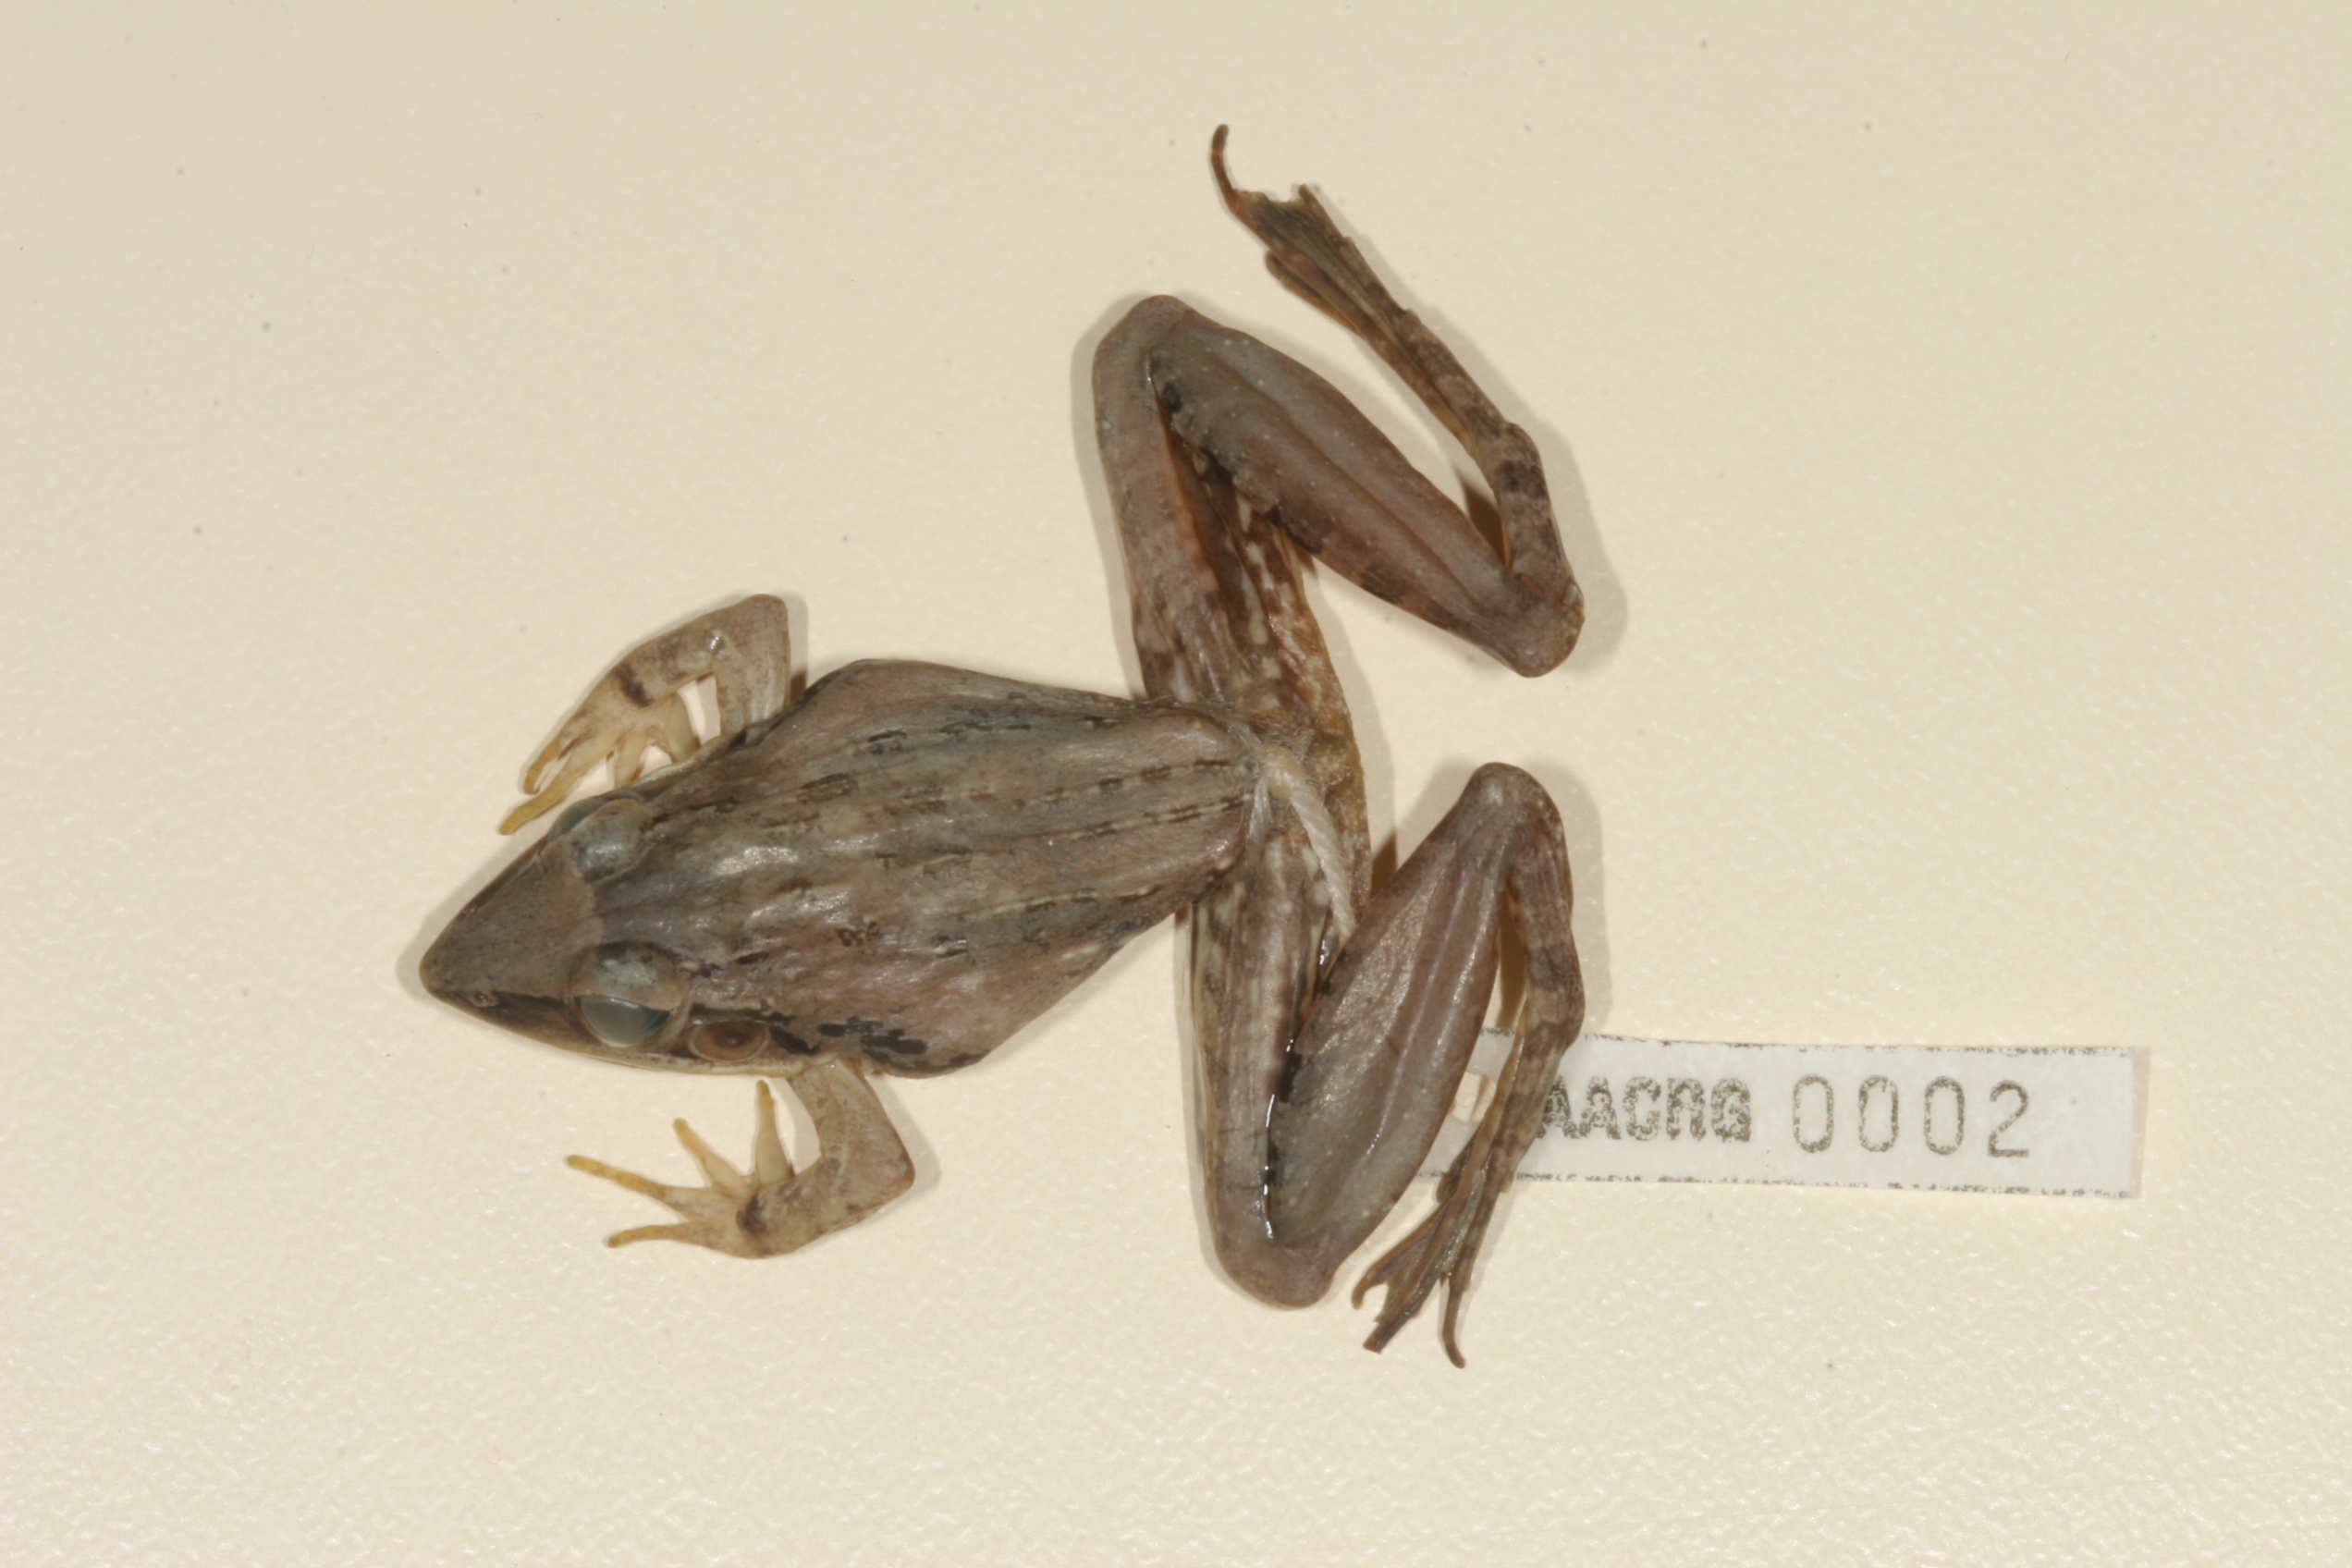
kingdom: Animalia
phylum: Chordata
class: Amphibia
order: Anura
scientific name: Anura
